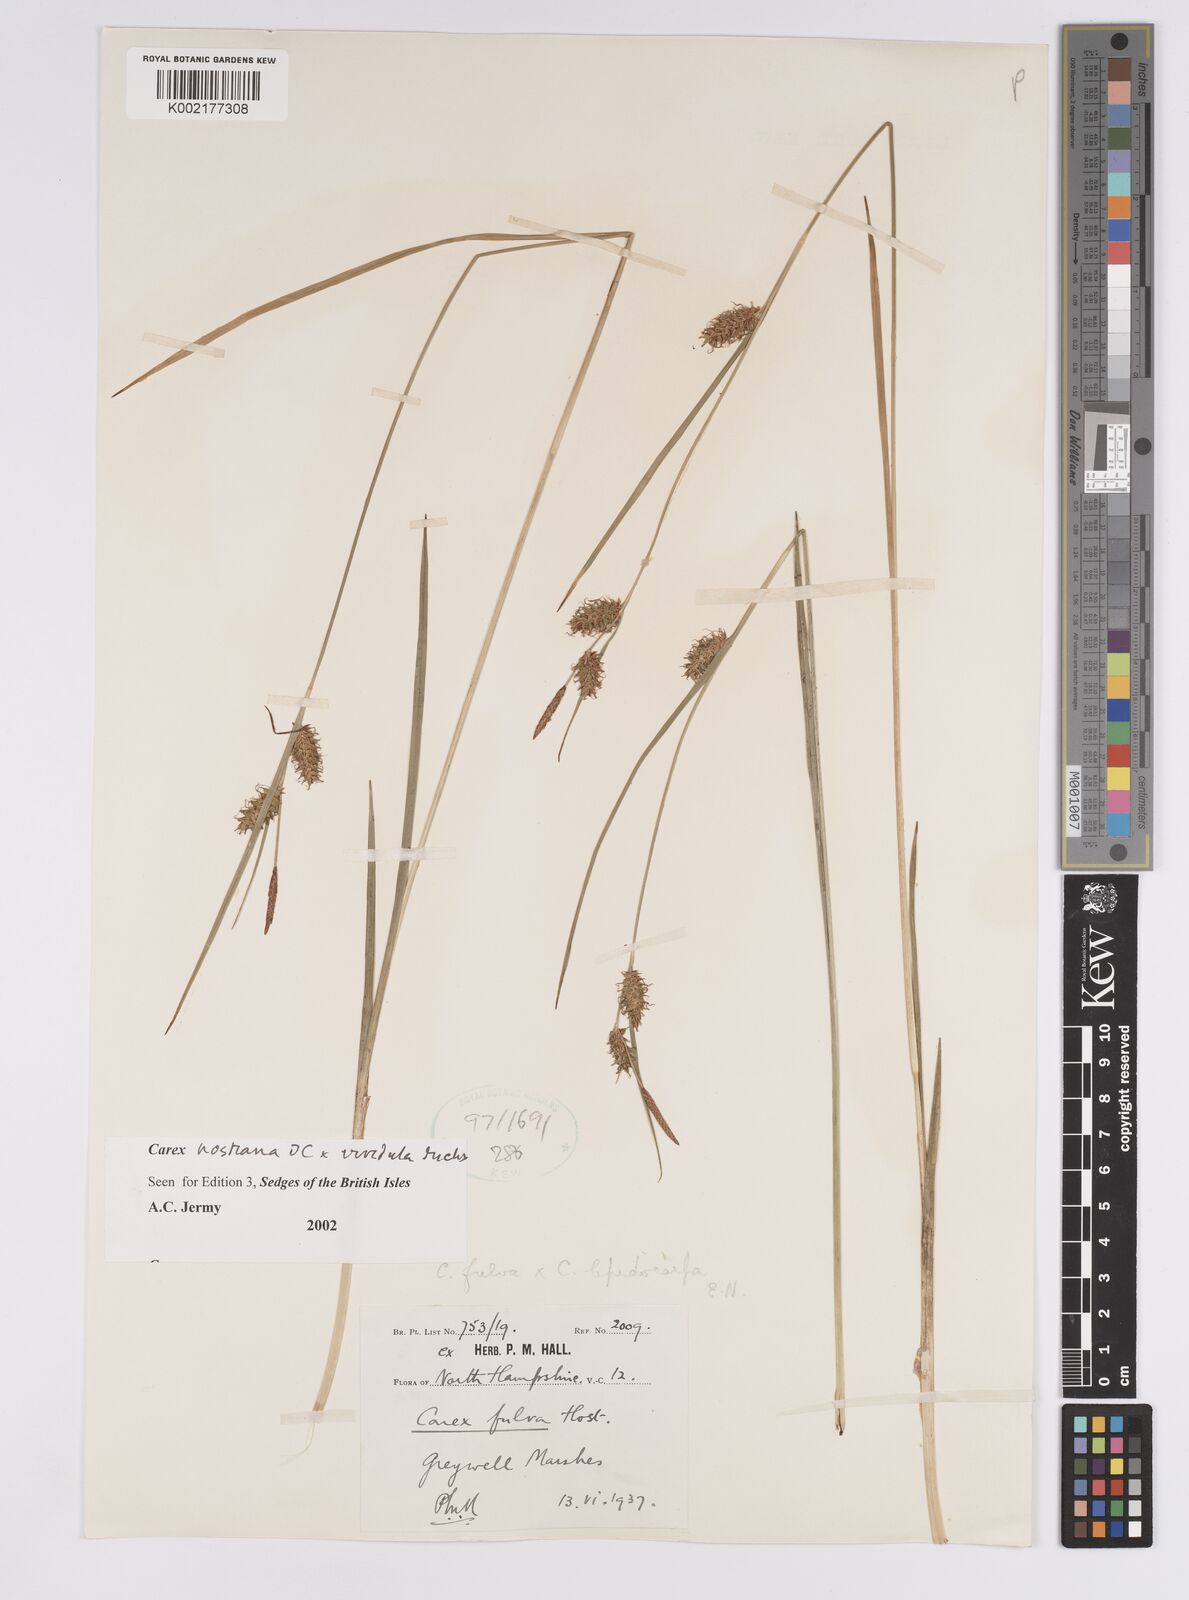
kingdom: Plantae
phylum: Tracheophyta
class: Liliopsida
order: Poales
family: Cyperaceae
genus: Carex
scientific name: Carex hostiana
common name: Tawny sedge
